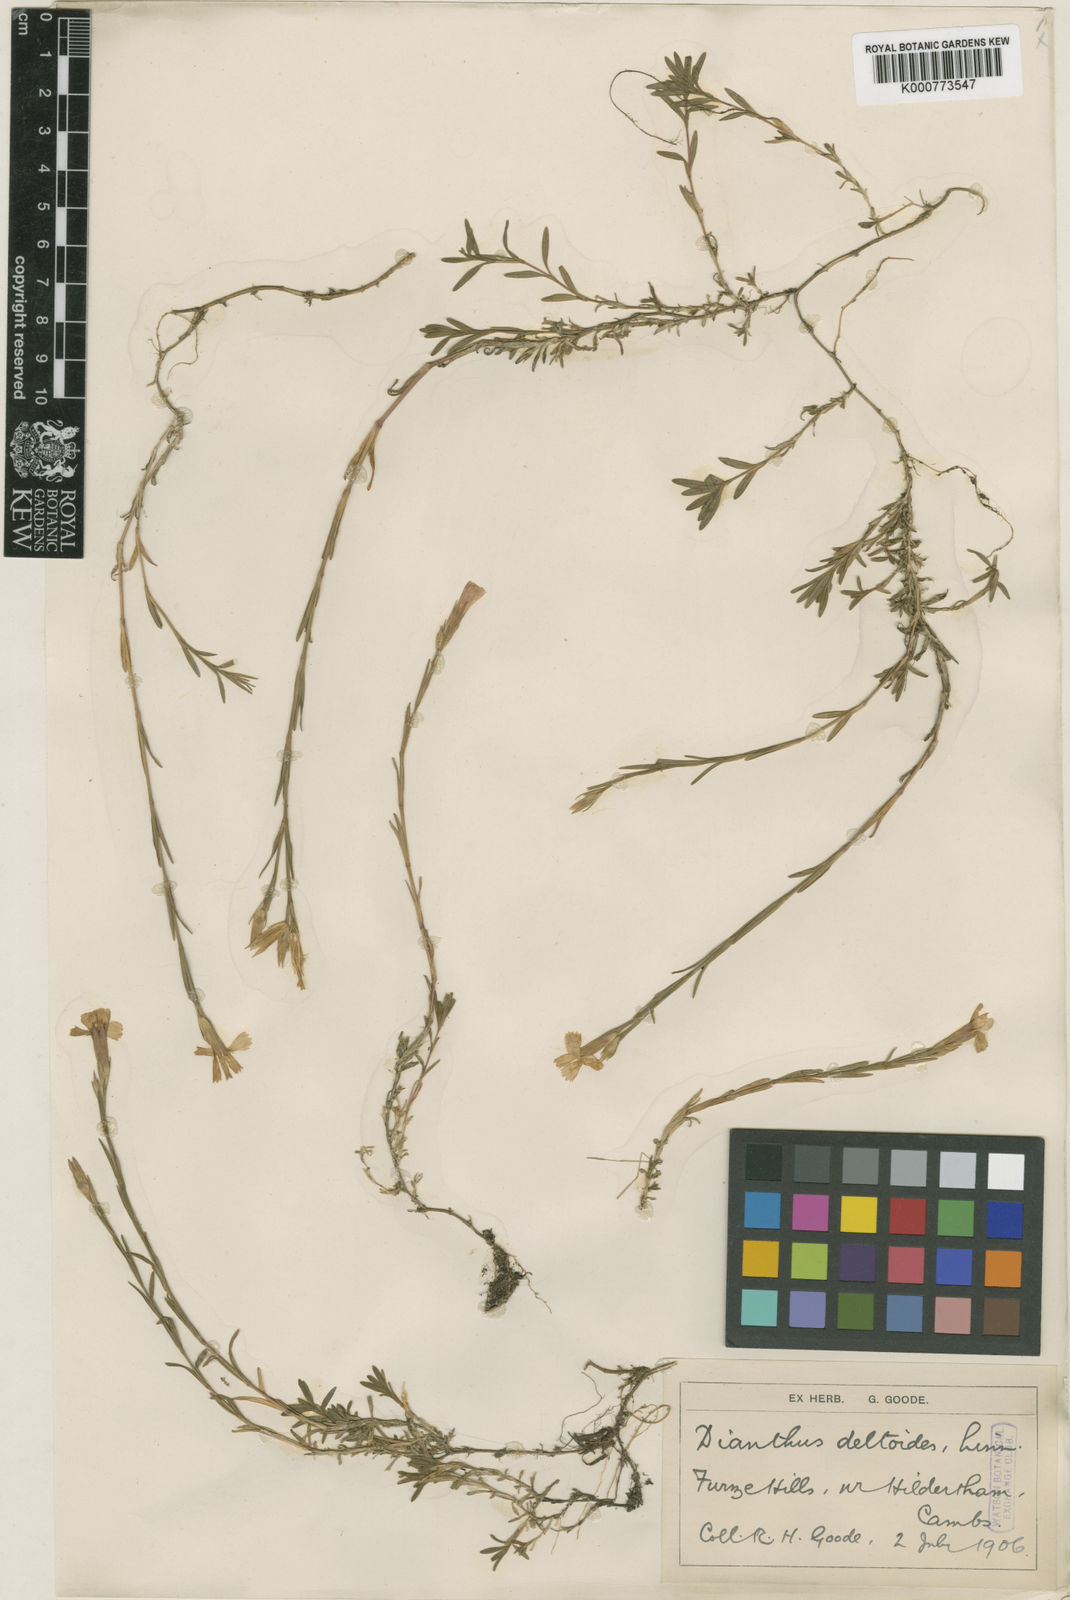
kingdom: Plantae
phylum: Tracheophyta
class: Magnoliopsida
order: Caryophyllales
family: Caryophyllaceae
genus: Dianthus
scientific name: Dianthus deltoides
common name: Maiden pink
